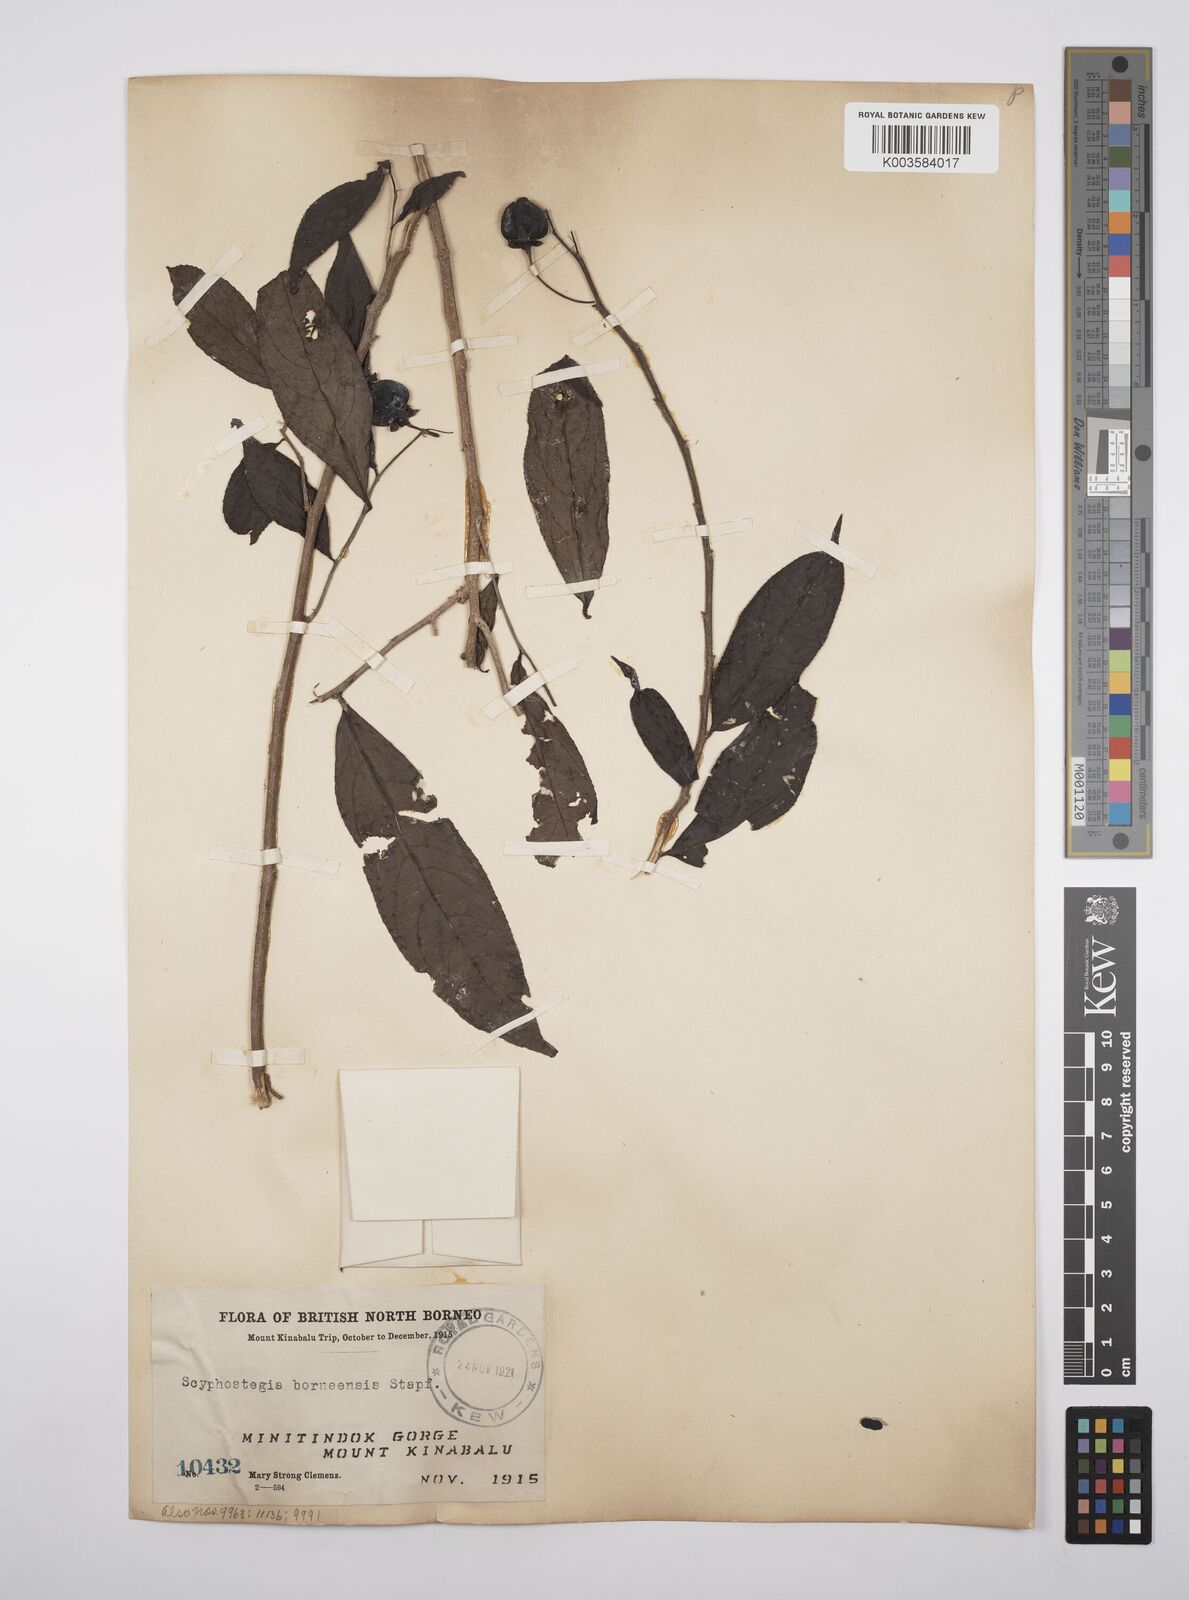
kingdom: Plantae
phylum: Tracheophyta
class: Magnoliopsida
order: Malpighiales
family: Salicaceae
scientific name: Salicaceae
